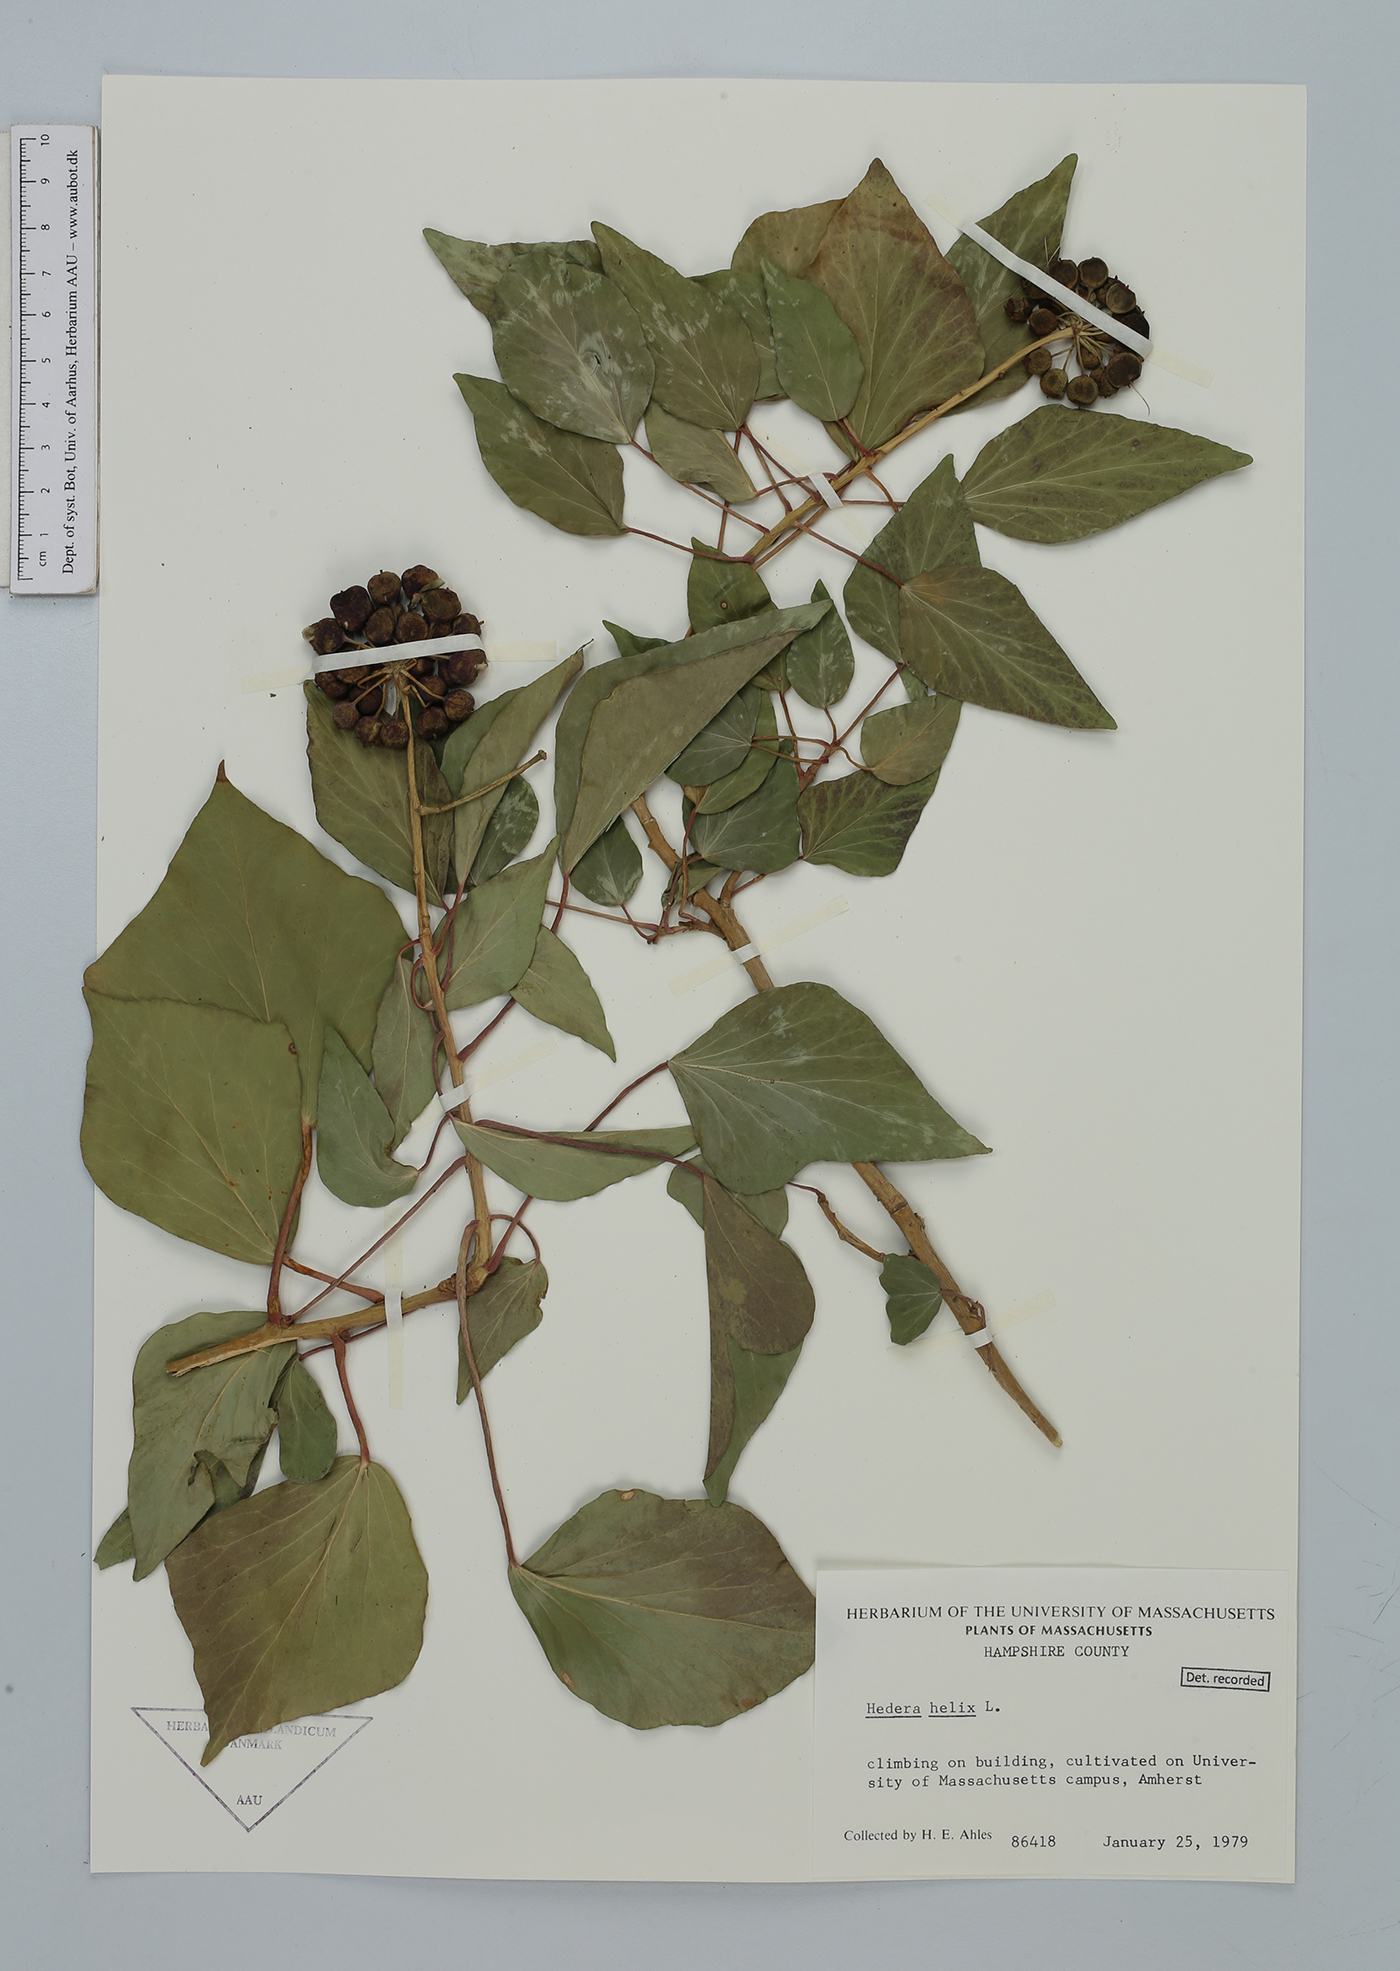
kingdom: Plantae
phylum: Tracheophyta
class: Magnoliopsida
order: Apiales
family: Araliaceae
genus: Hedera
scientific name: Hedera helix
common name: Ivy
